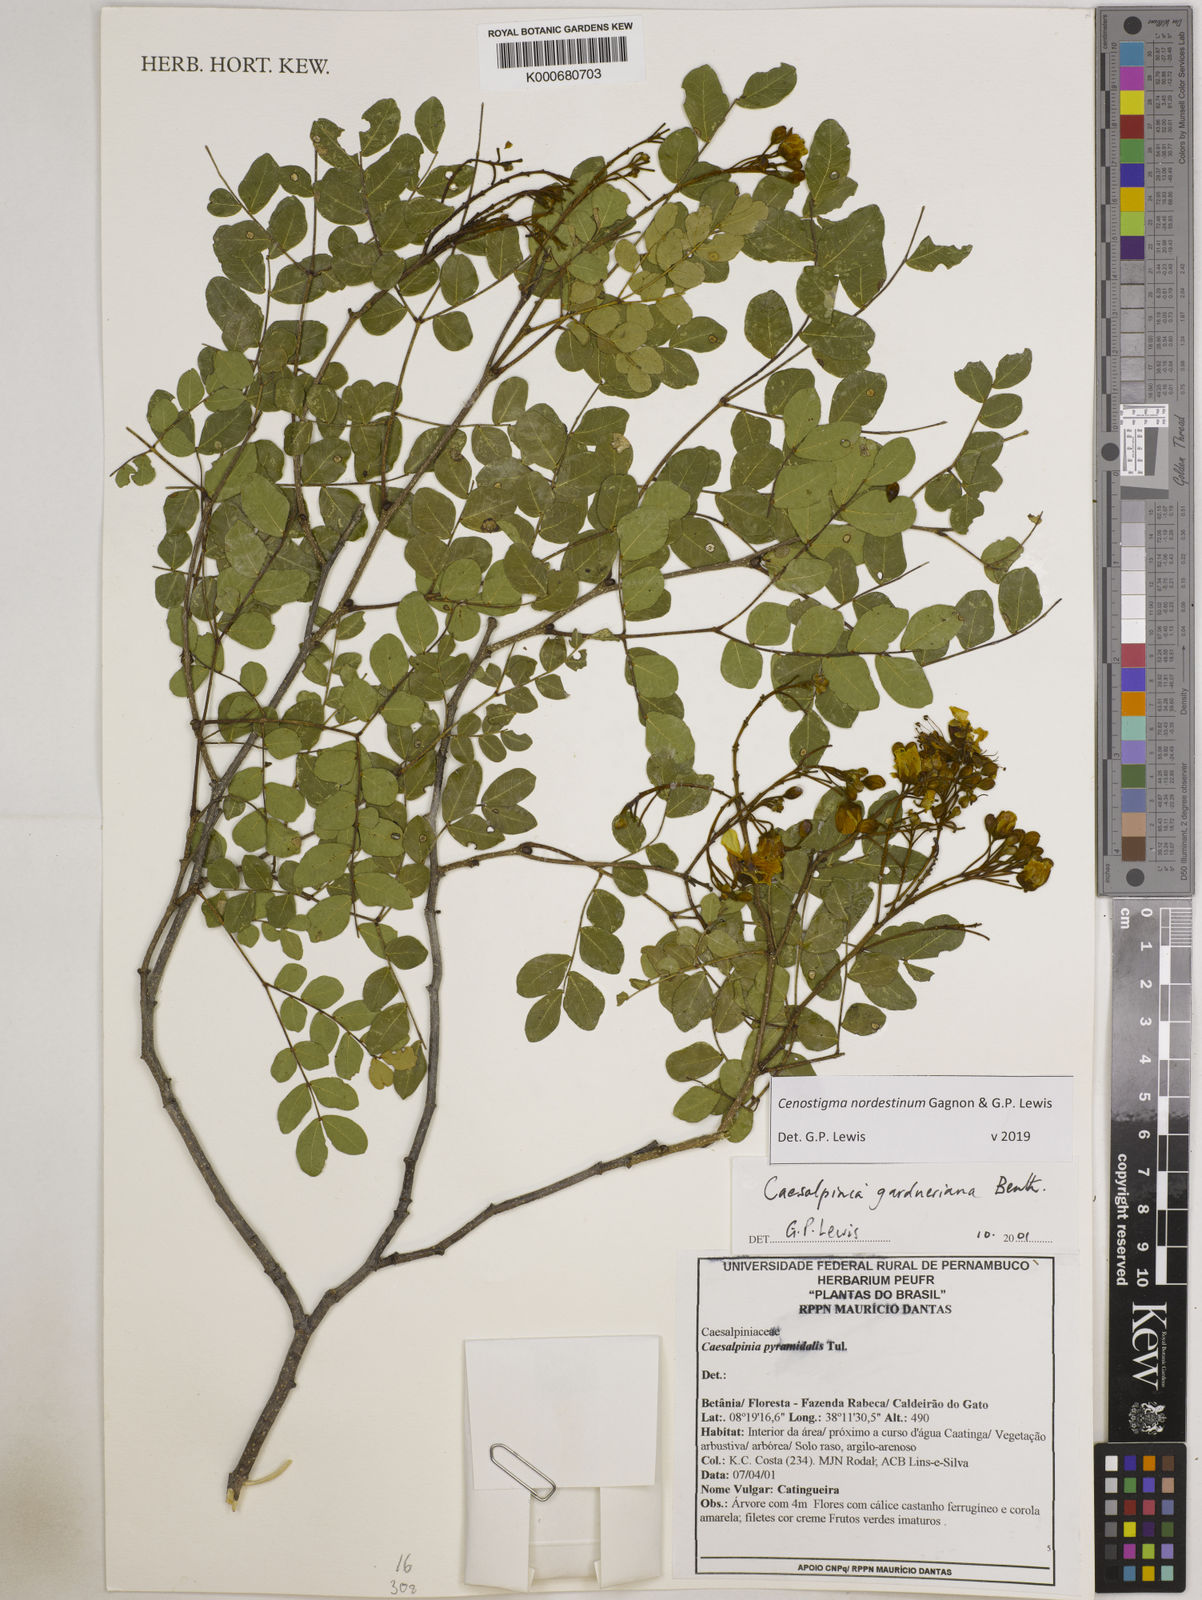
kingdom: Plantae
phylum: Tracheophyta
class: Magnoliopsida
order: Fabales
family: Fabaceae
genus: Cenostigma
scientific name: Cenostigma nordestinum
